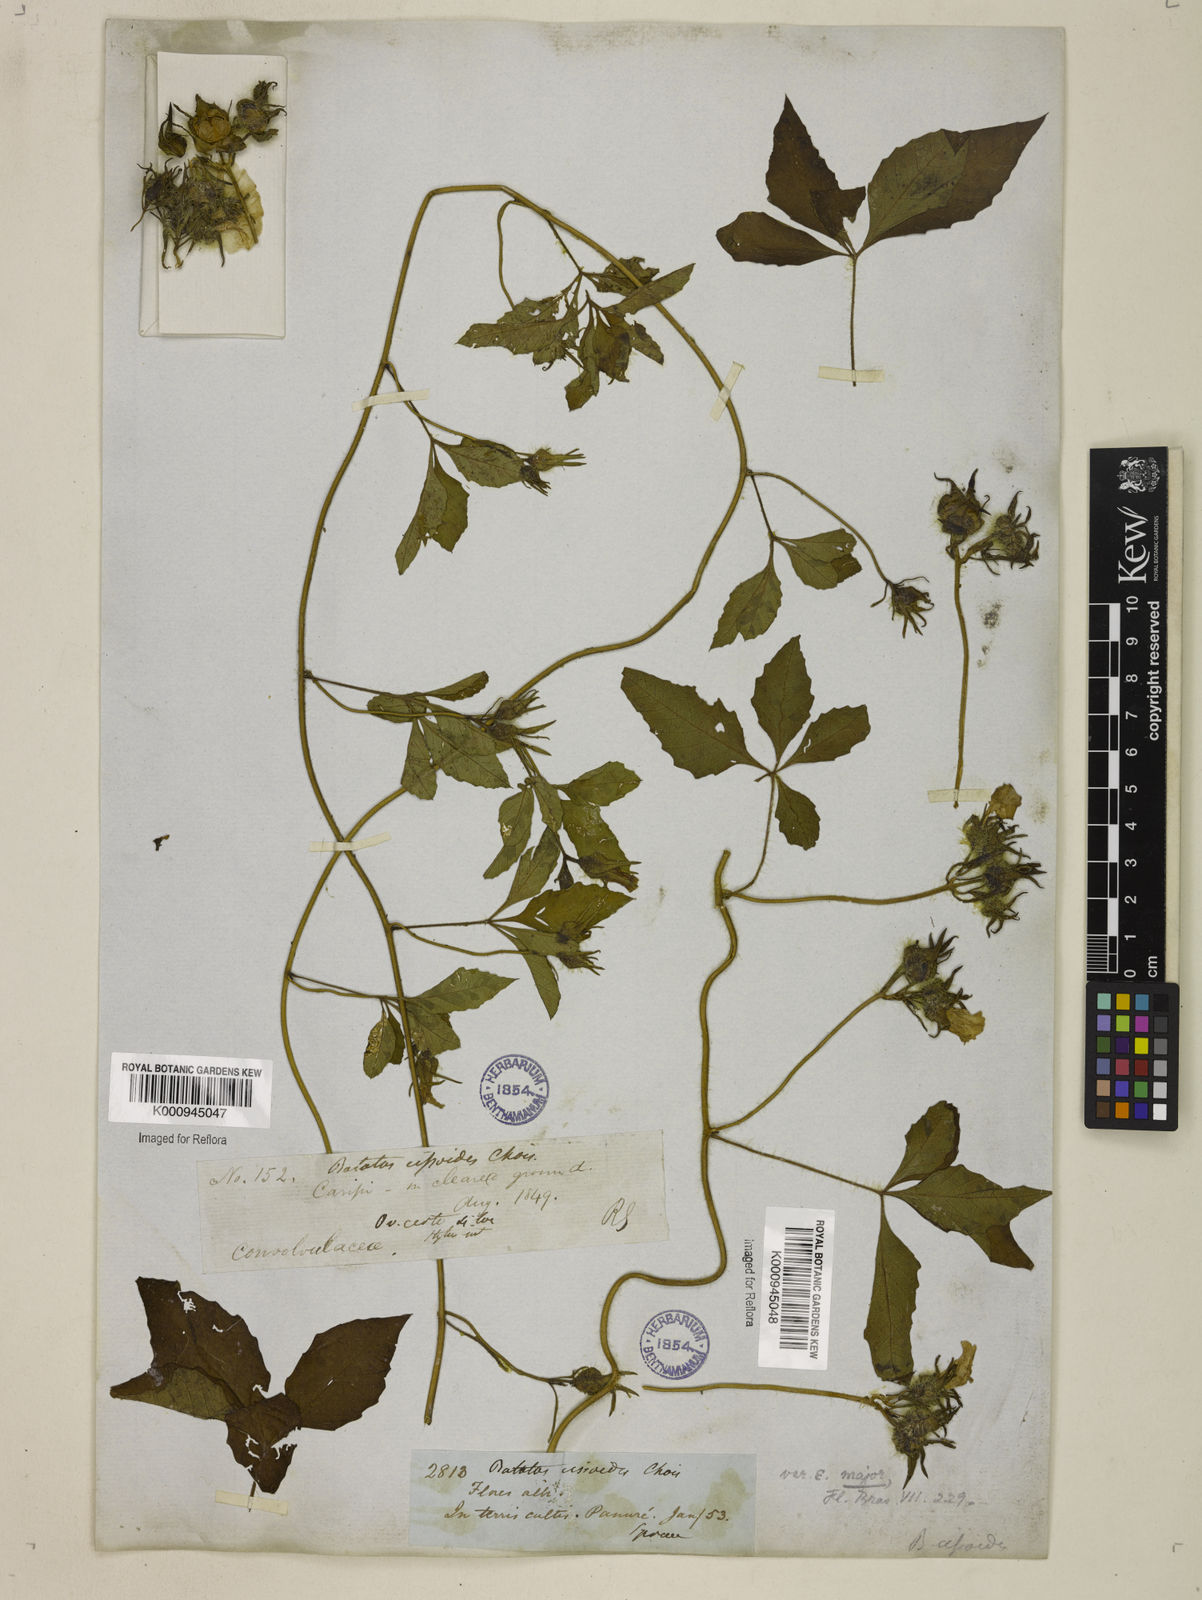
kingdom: Plantae
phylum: Tracheophyta
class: Magnoliopsida
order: Solanales
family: Convolvulaceae
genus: Distimake
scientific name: Distimake cissoides
